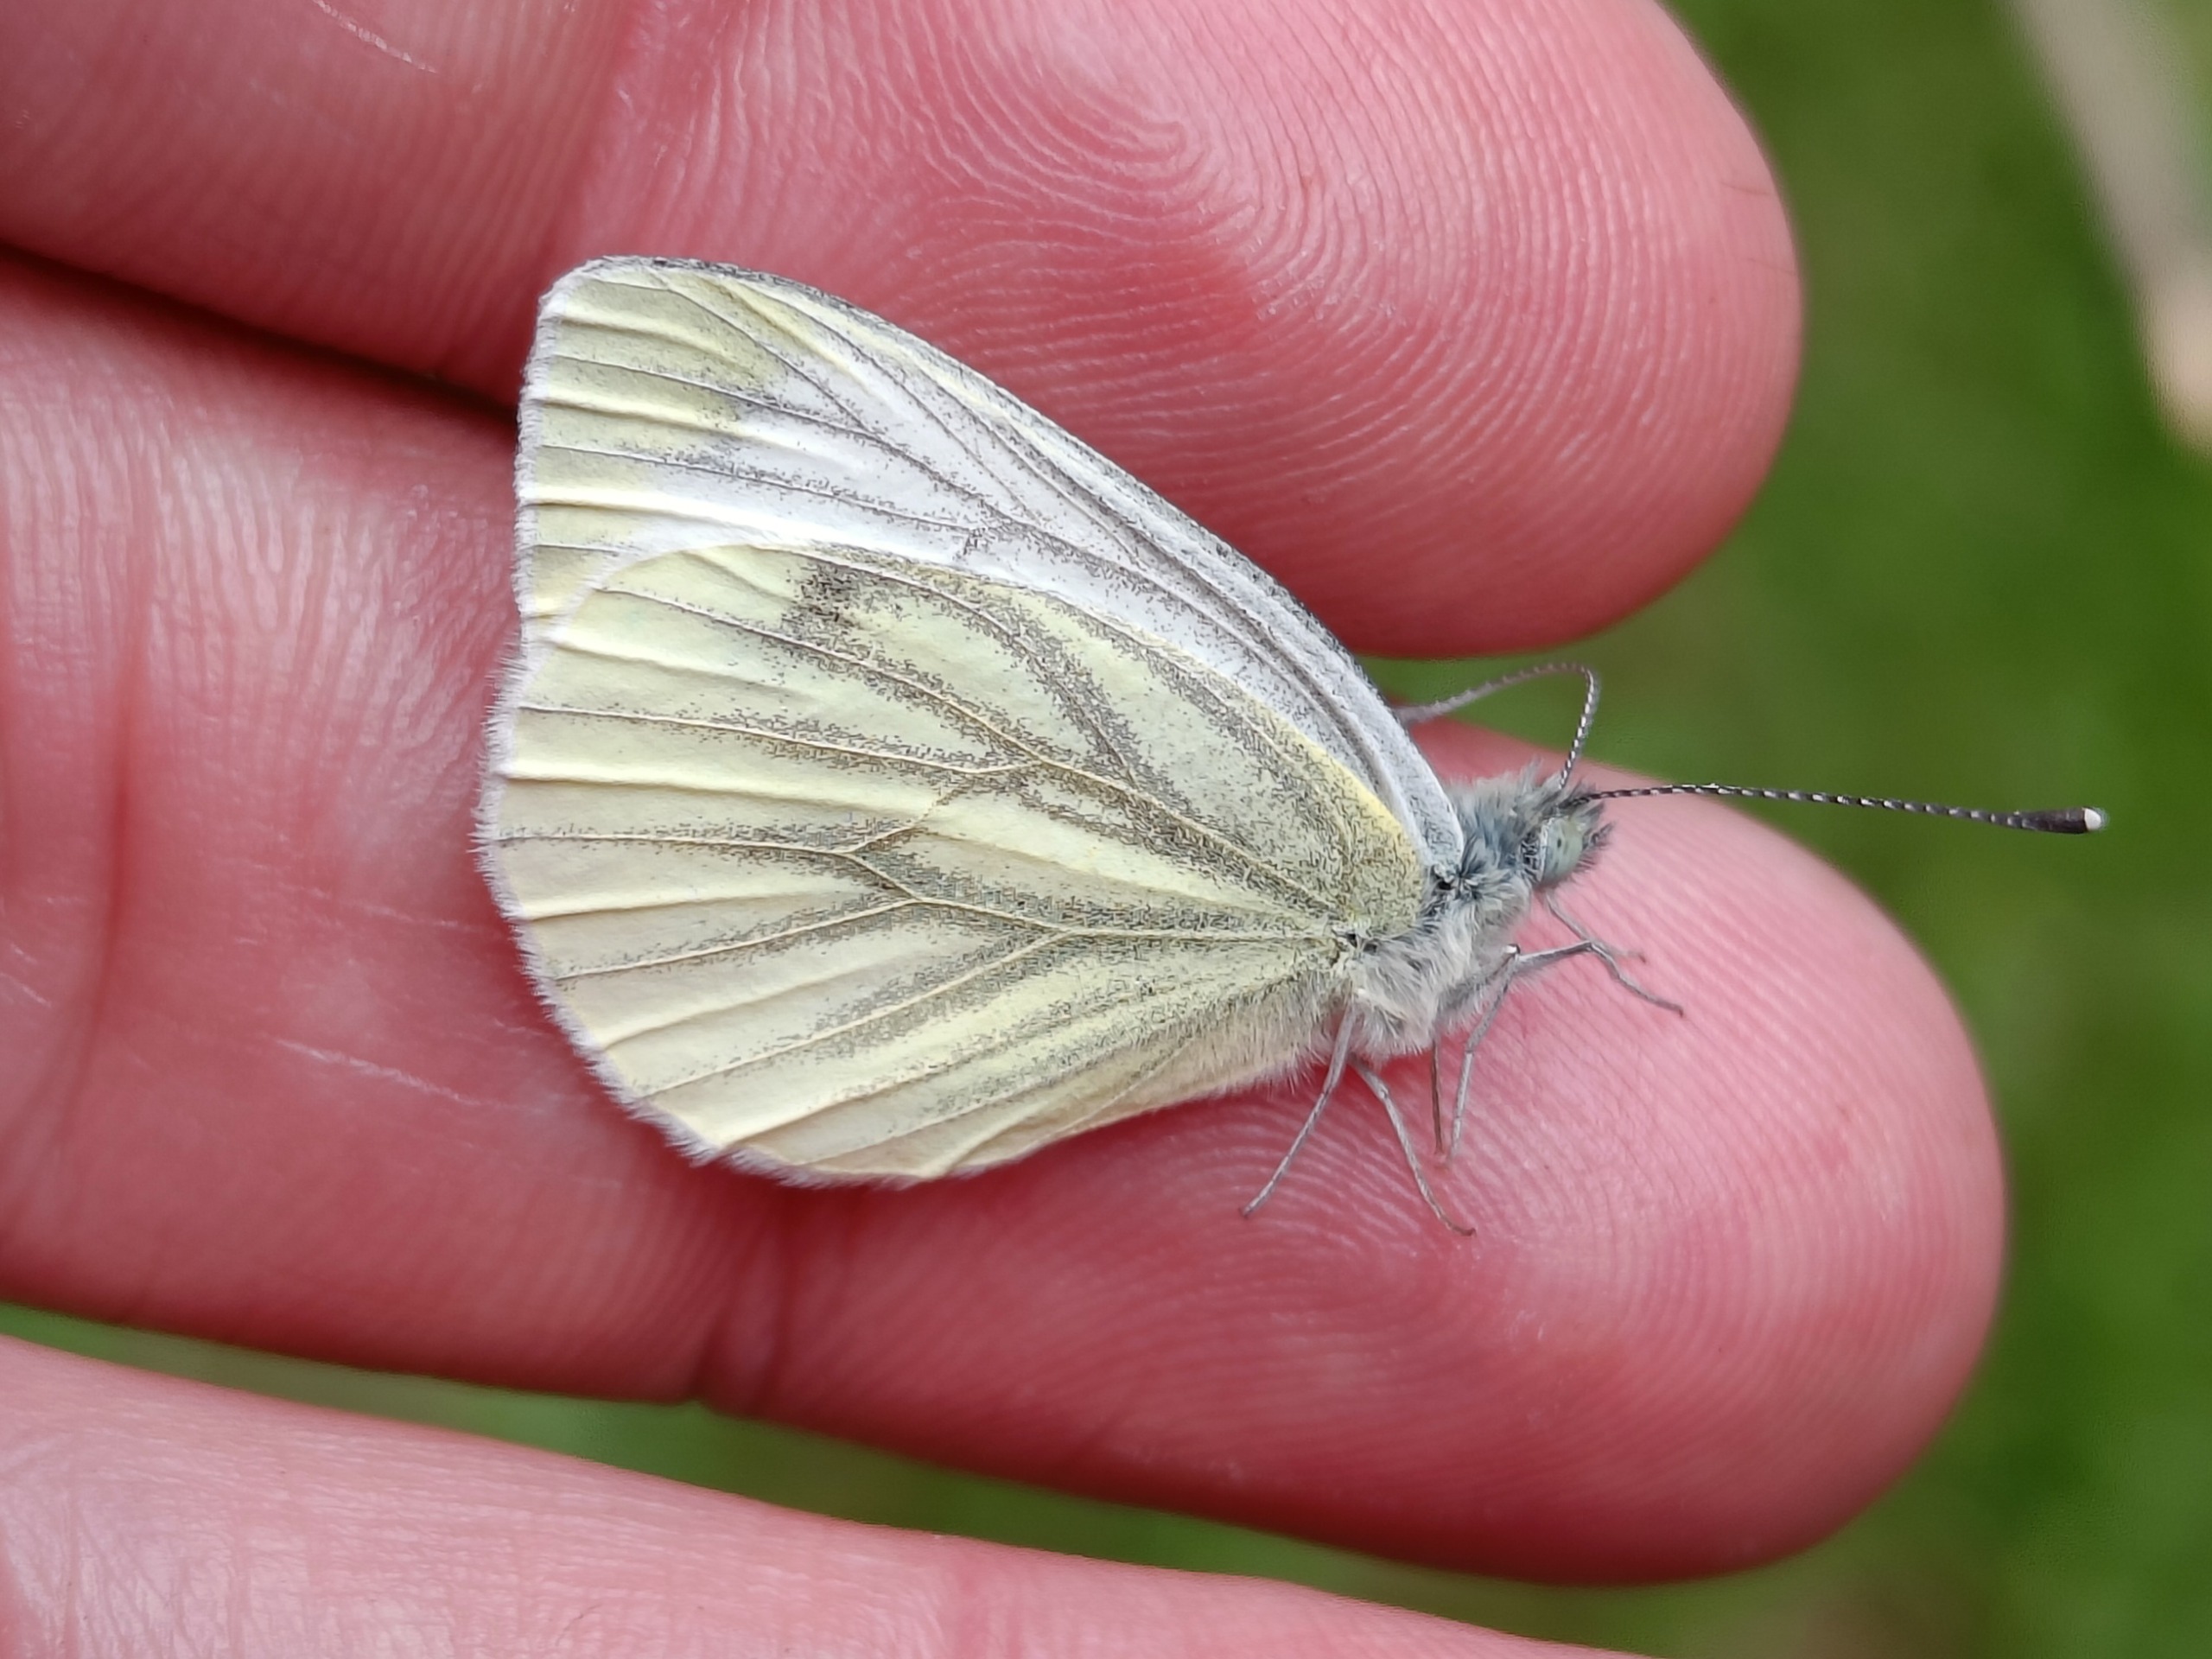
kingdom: Animalia
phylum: Arthropoda
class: Insecta
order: Lepidoptera
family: Pieridae
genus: Pieris
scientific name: Pieris napi
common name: Grønåret kålsommerfugl
